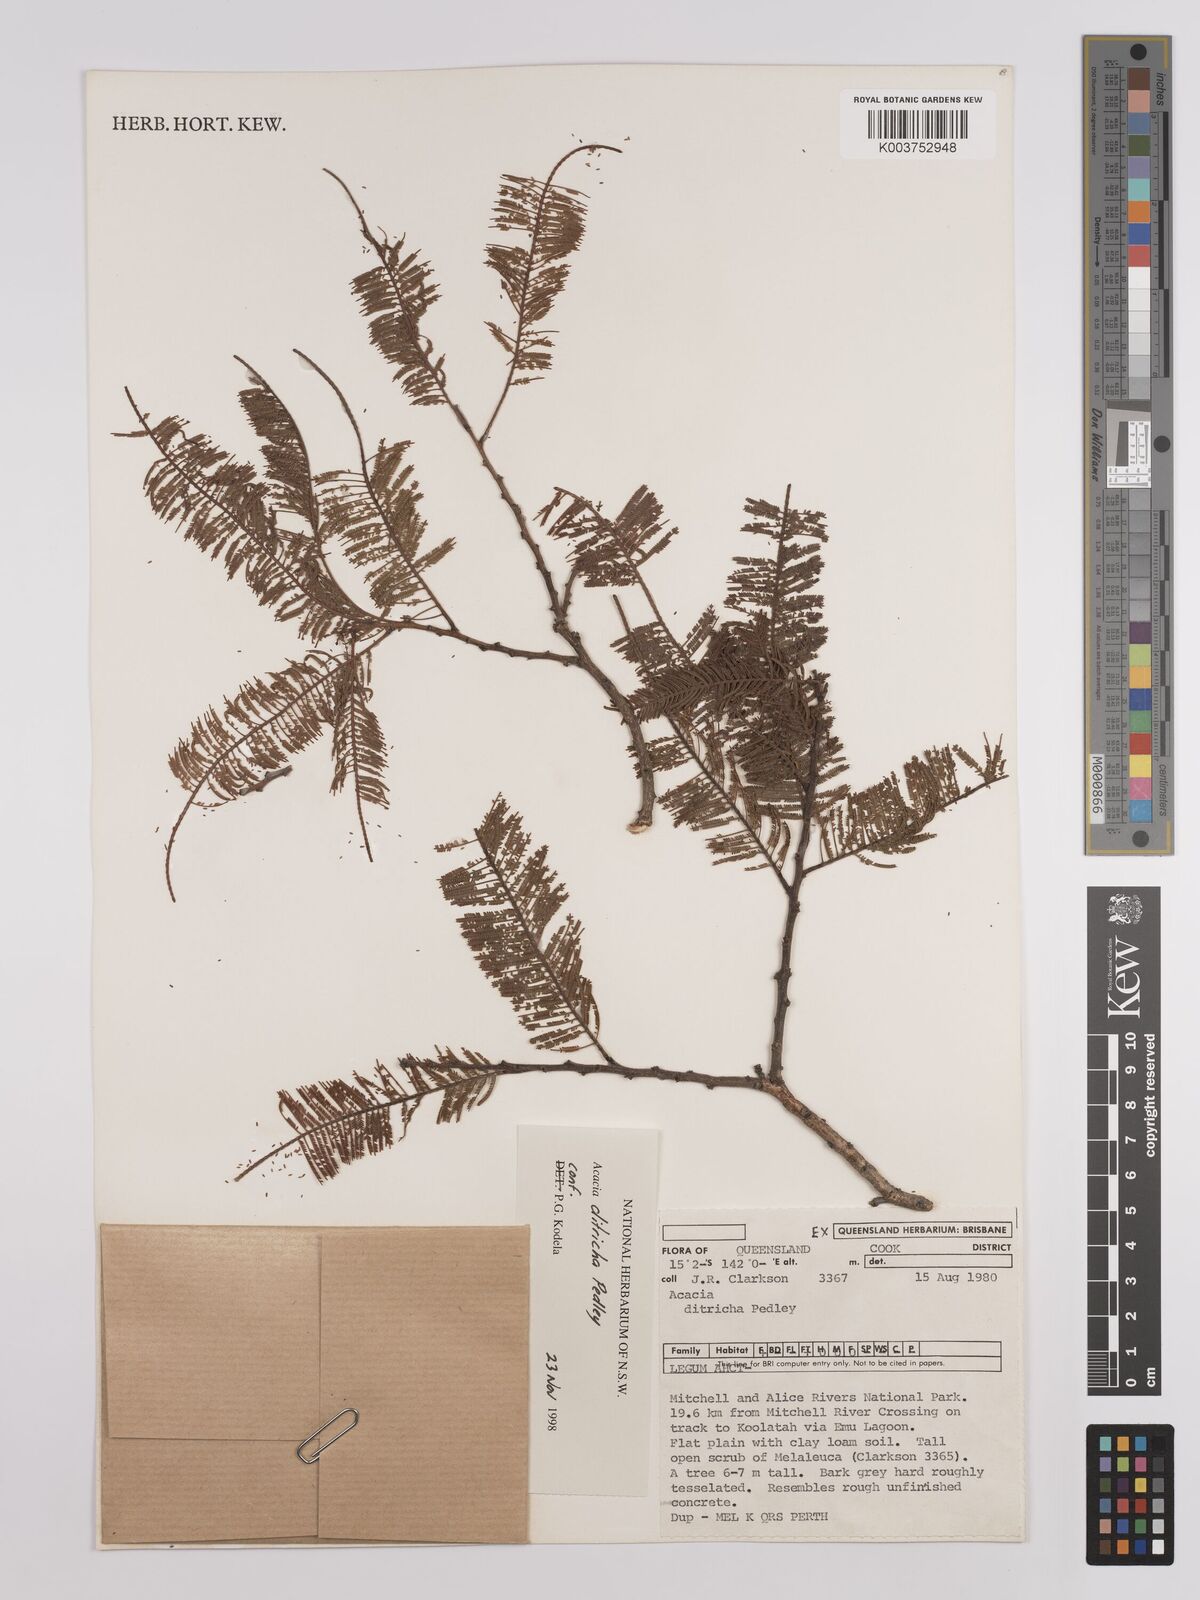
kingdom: Plantae
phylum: Tracheophyta
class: Magnoliopsida
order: Fabales
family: Fabaceae
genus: Vachellia
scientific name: Vachellia ditricha
